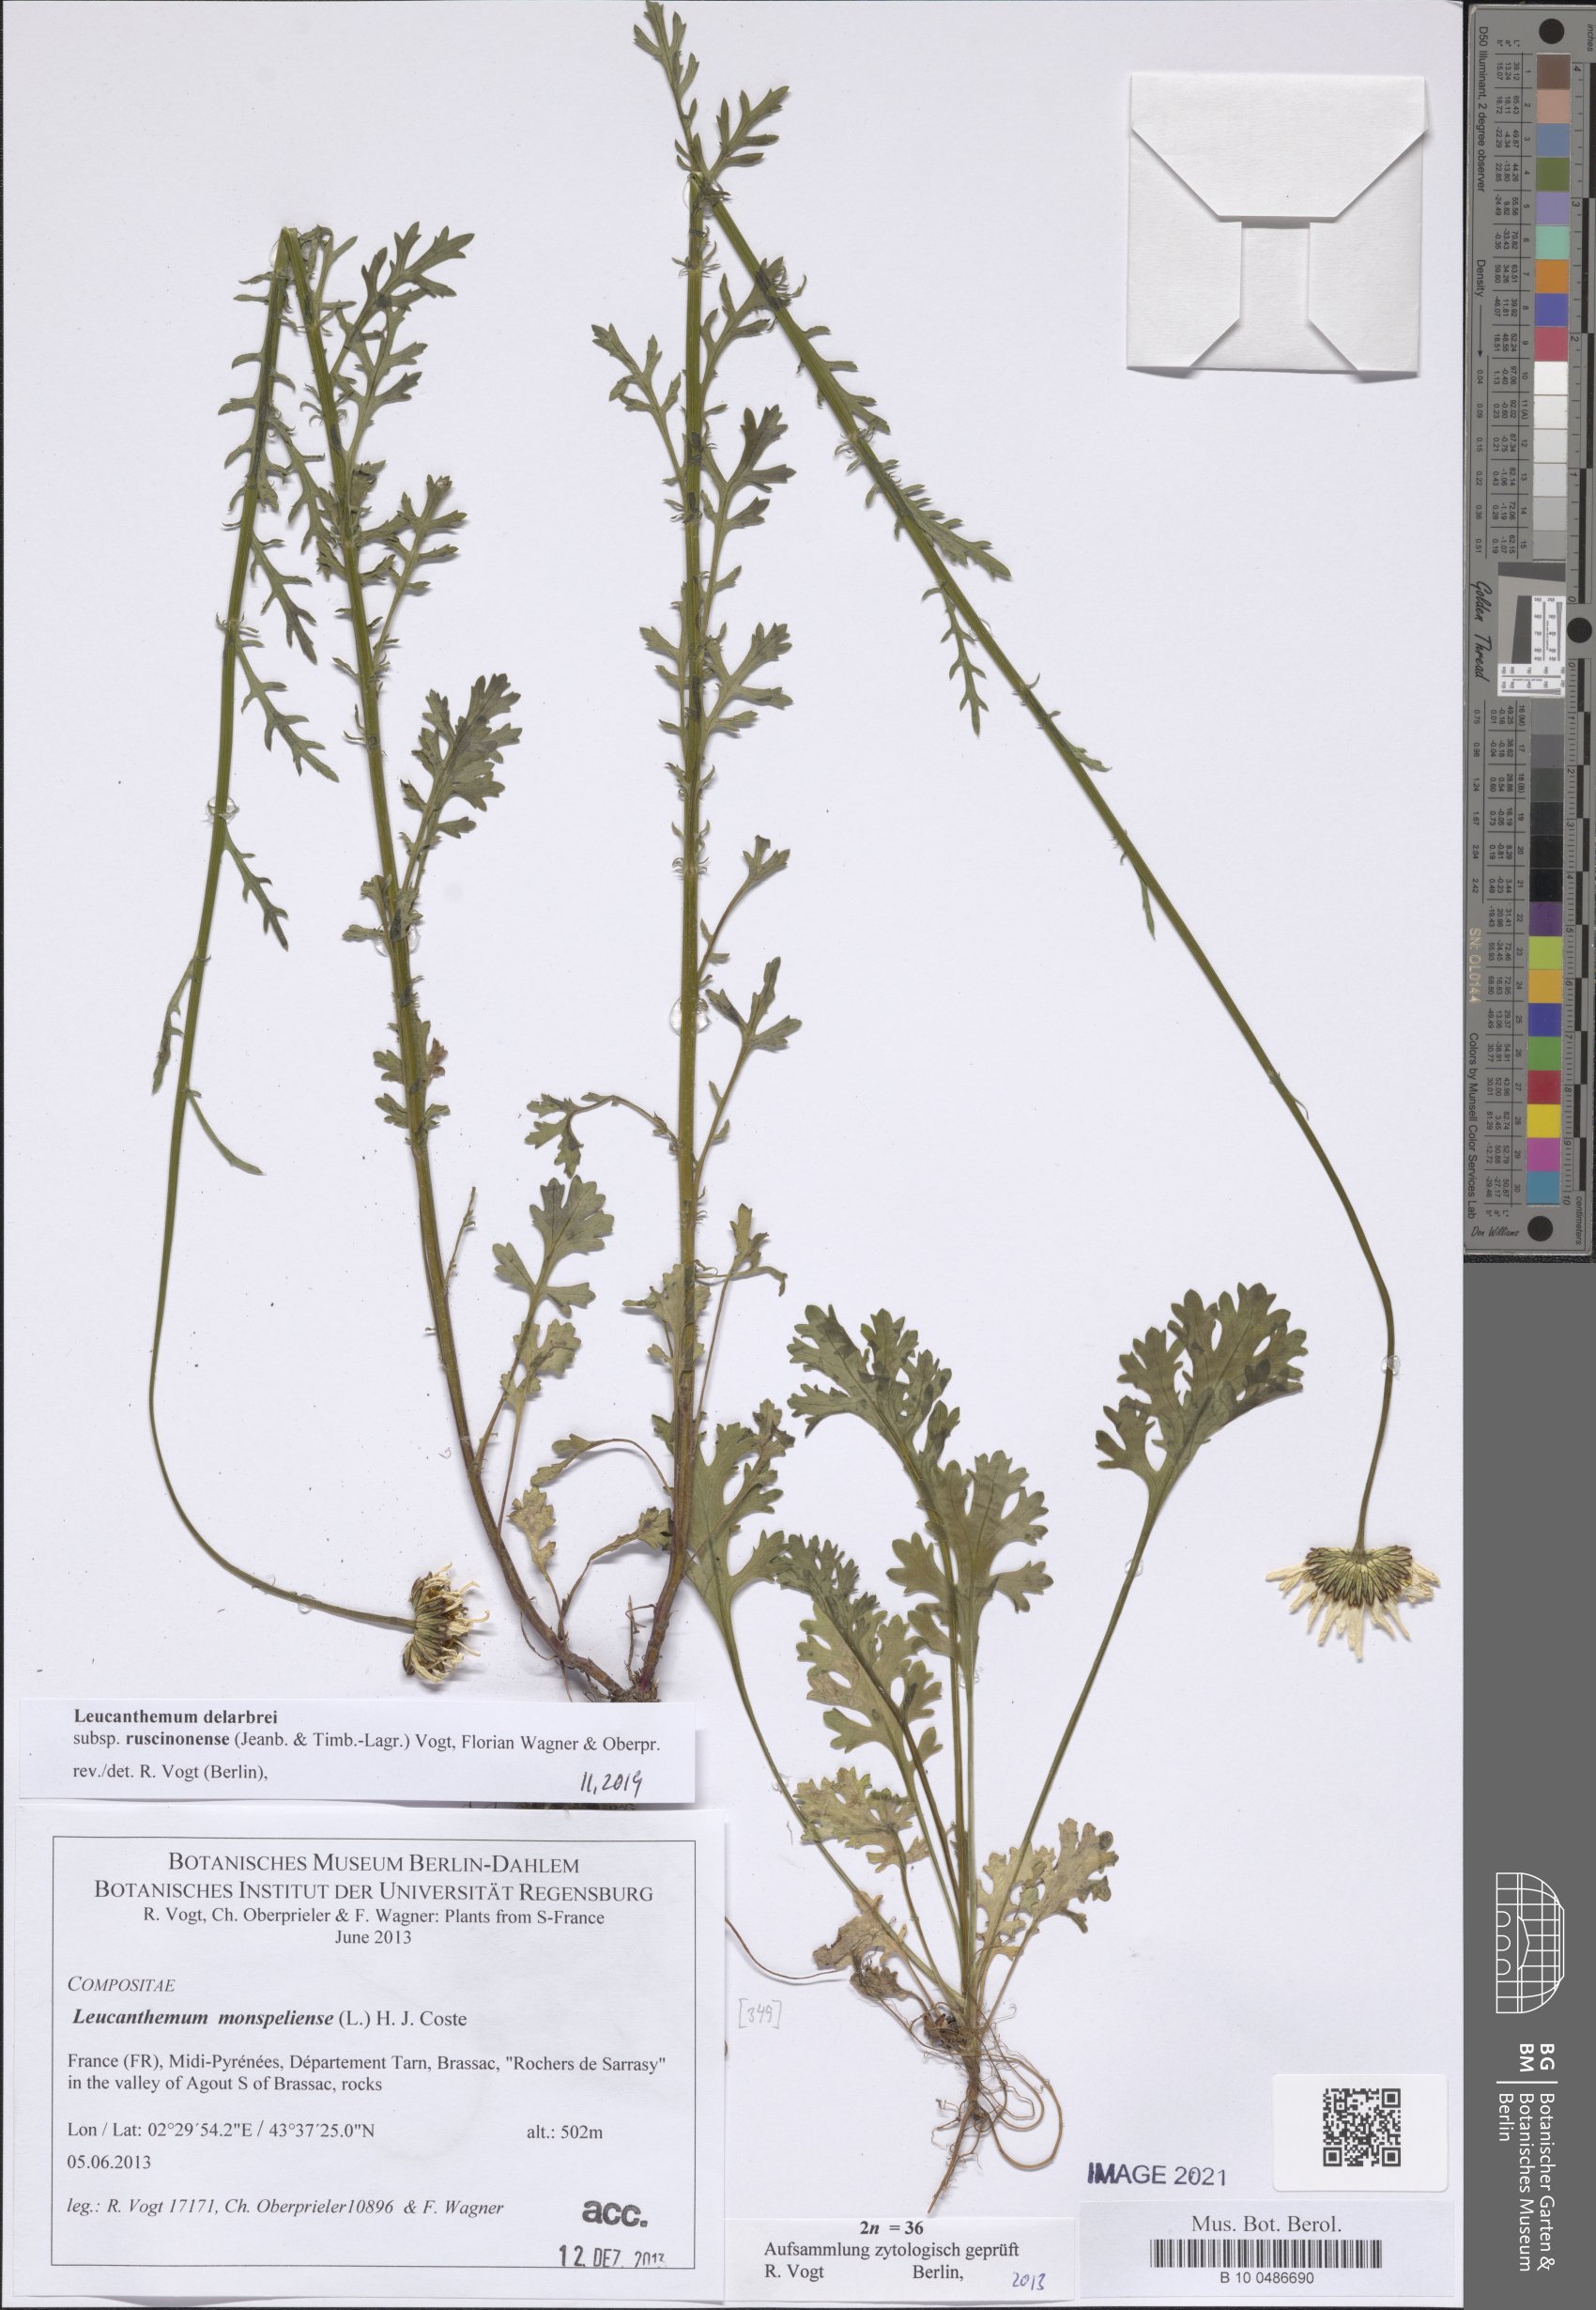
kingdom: Plantae
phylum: Tracheophyta
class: Magnoliopsida
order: Asterales
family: Asteraceae
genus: Leucanthemum
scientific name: Leucanthemum delarbrei
